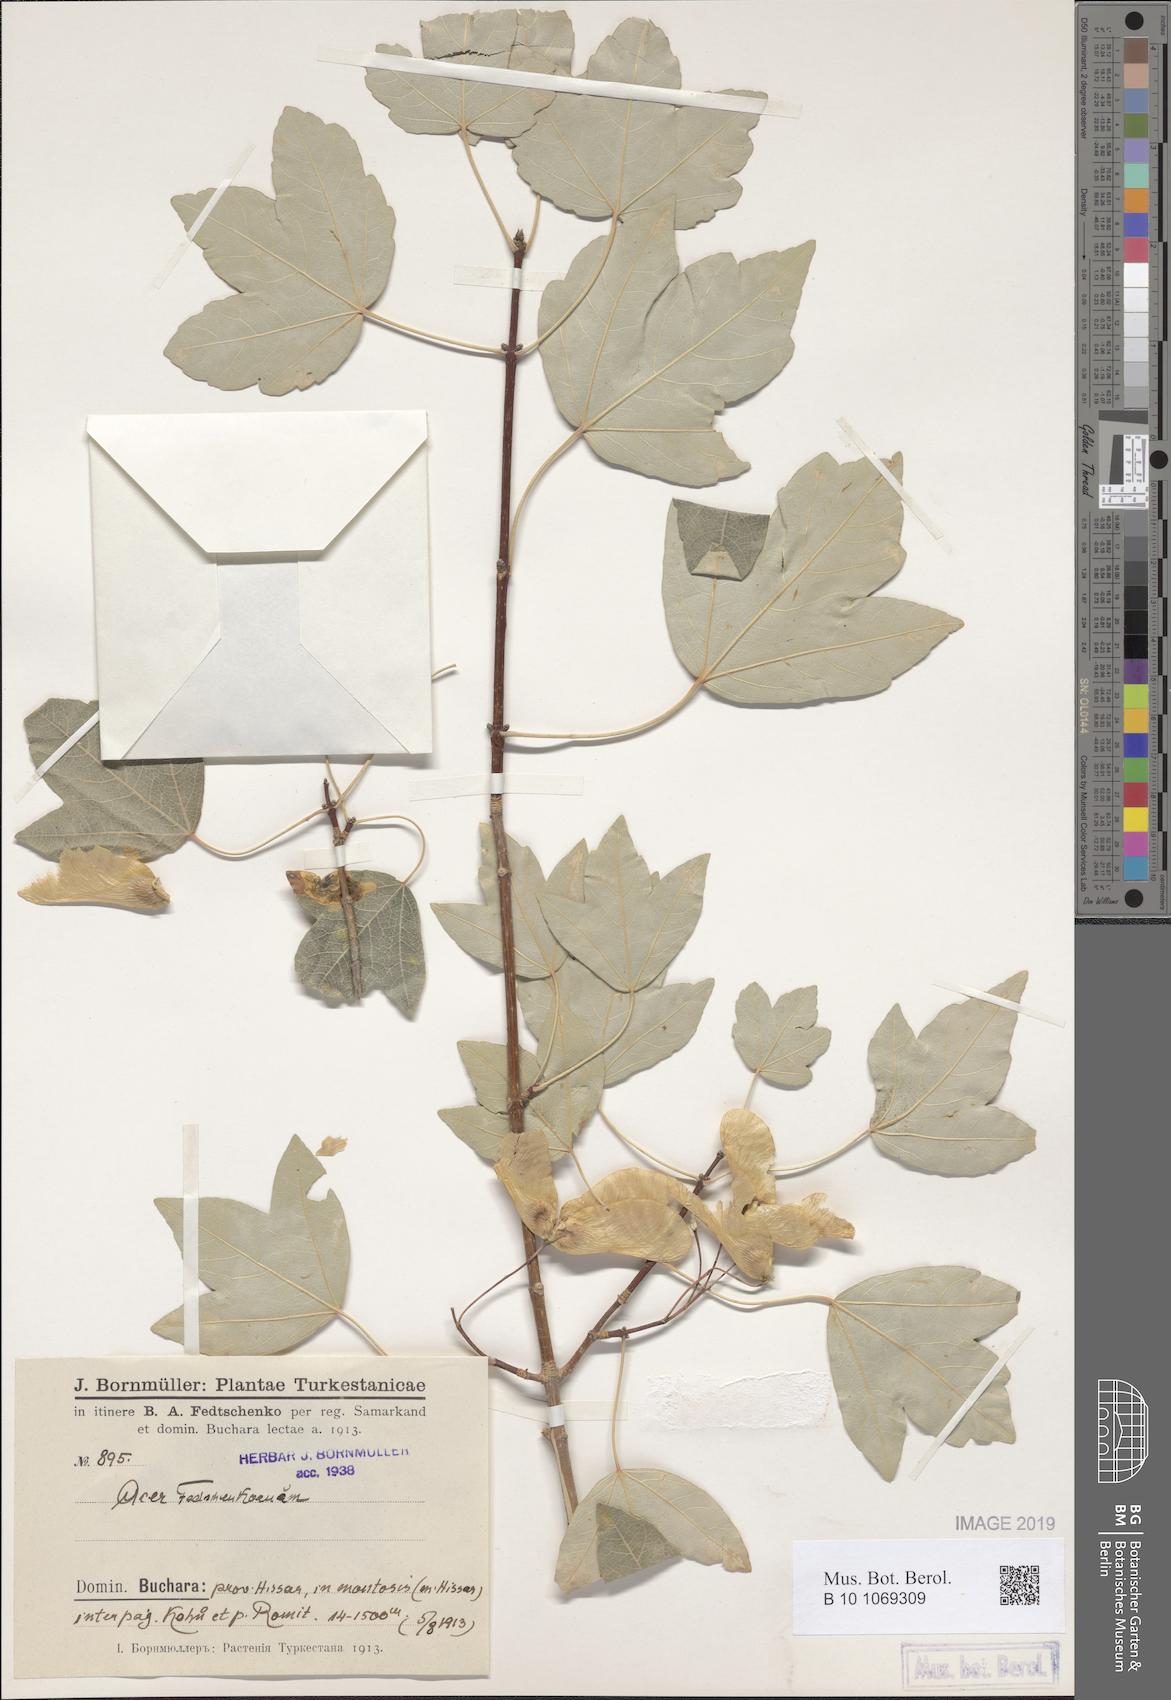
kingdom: Plantae
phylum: Tracheophyta
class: Magnoliopsida
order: Sapindales
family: Sapindaceae
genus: Acer
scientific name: Acer pentapomicum
